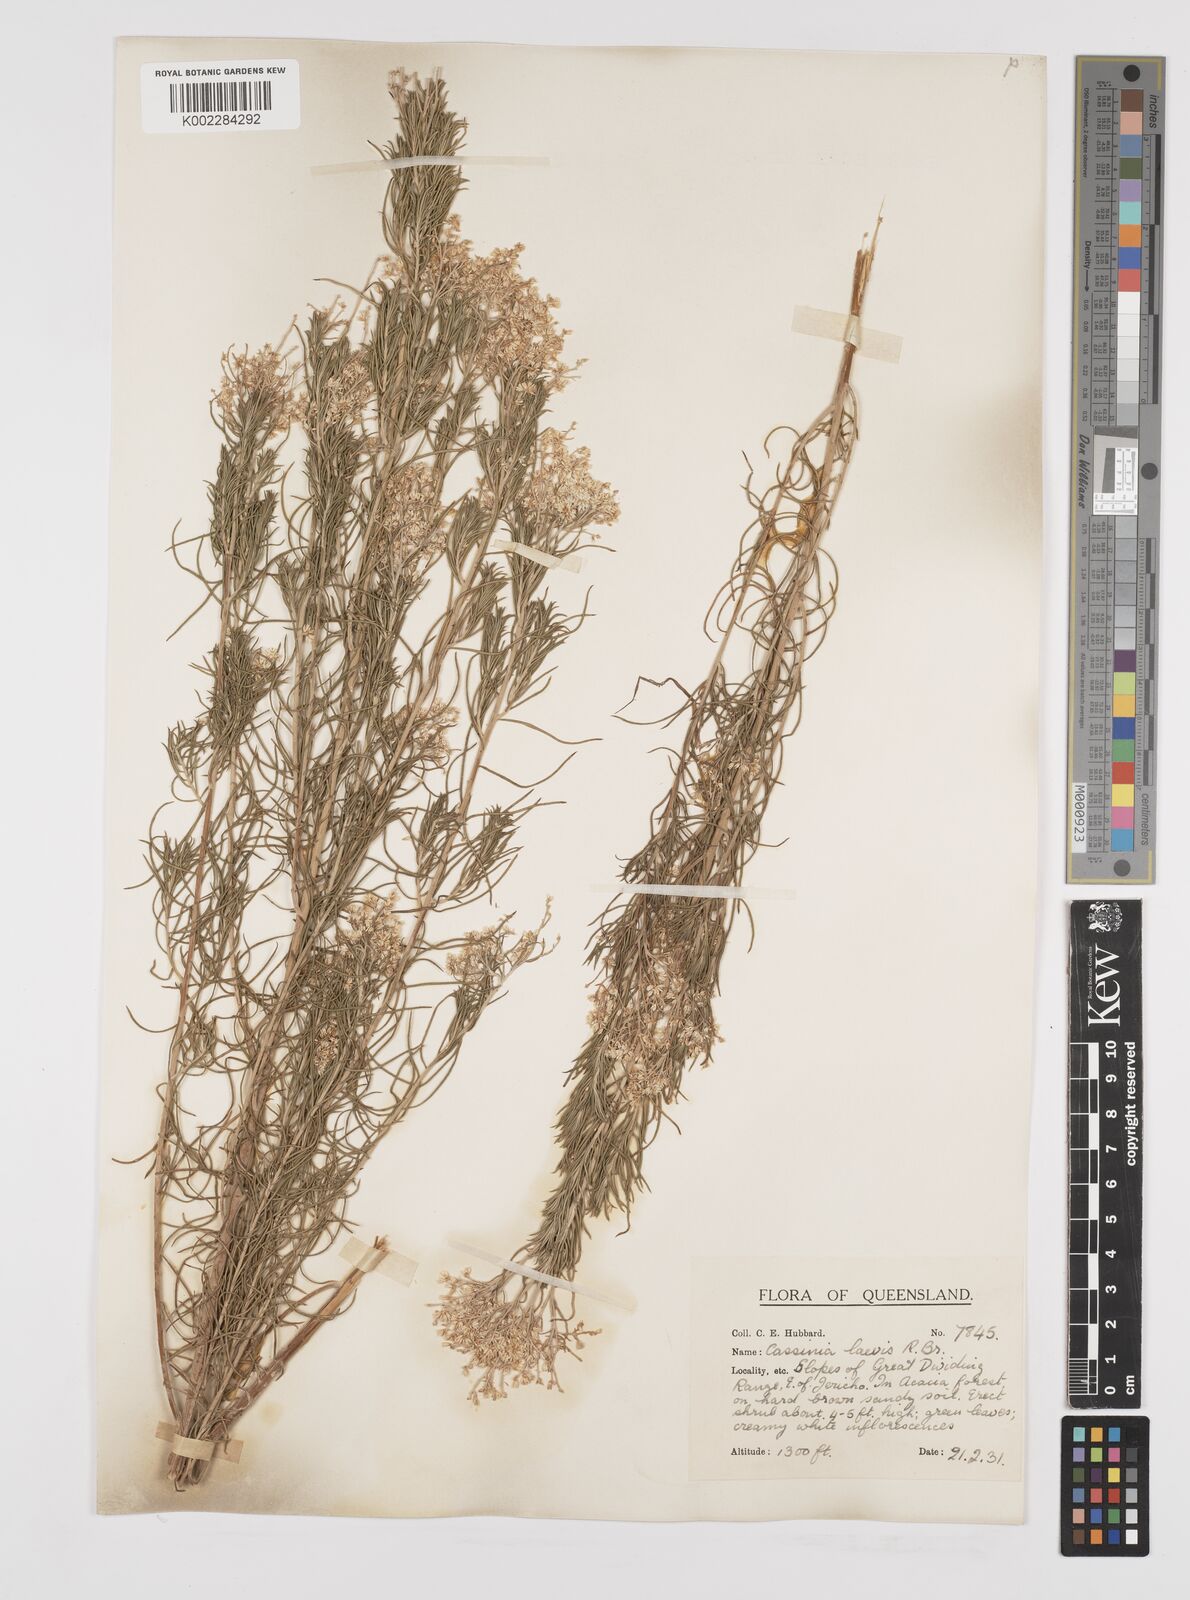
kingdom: Plantae
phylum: Tracheophyta
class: Magnoliopsida
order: Asterales
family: Asteraceae
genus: Cassinia
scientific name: Cassinia laevis
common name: Coughbush
